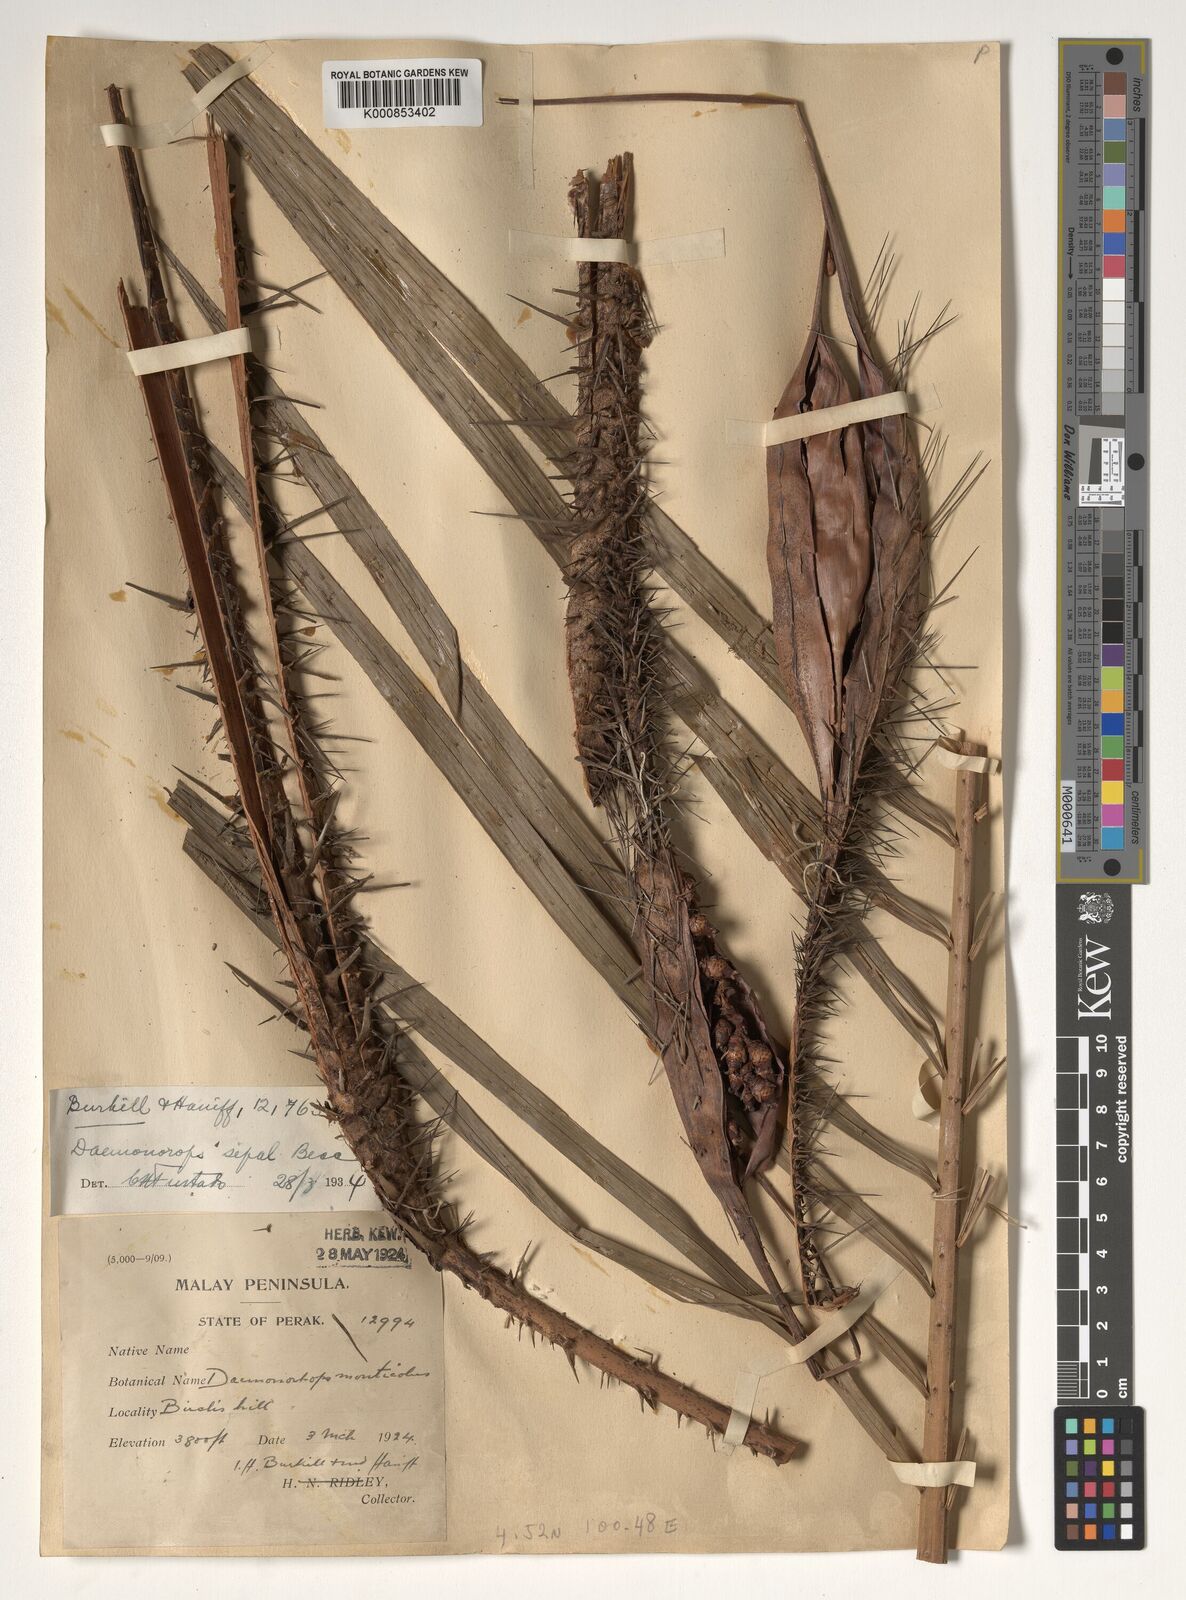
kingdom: Plantae
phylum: Tracheophyta
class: Liliopsida
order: Arecales
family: Arecaceae
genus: Calamus
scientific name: Calamus melanochaetes
